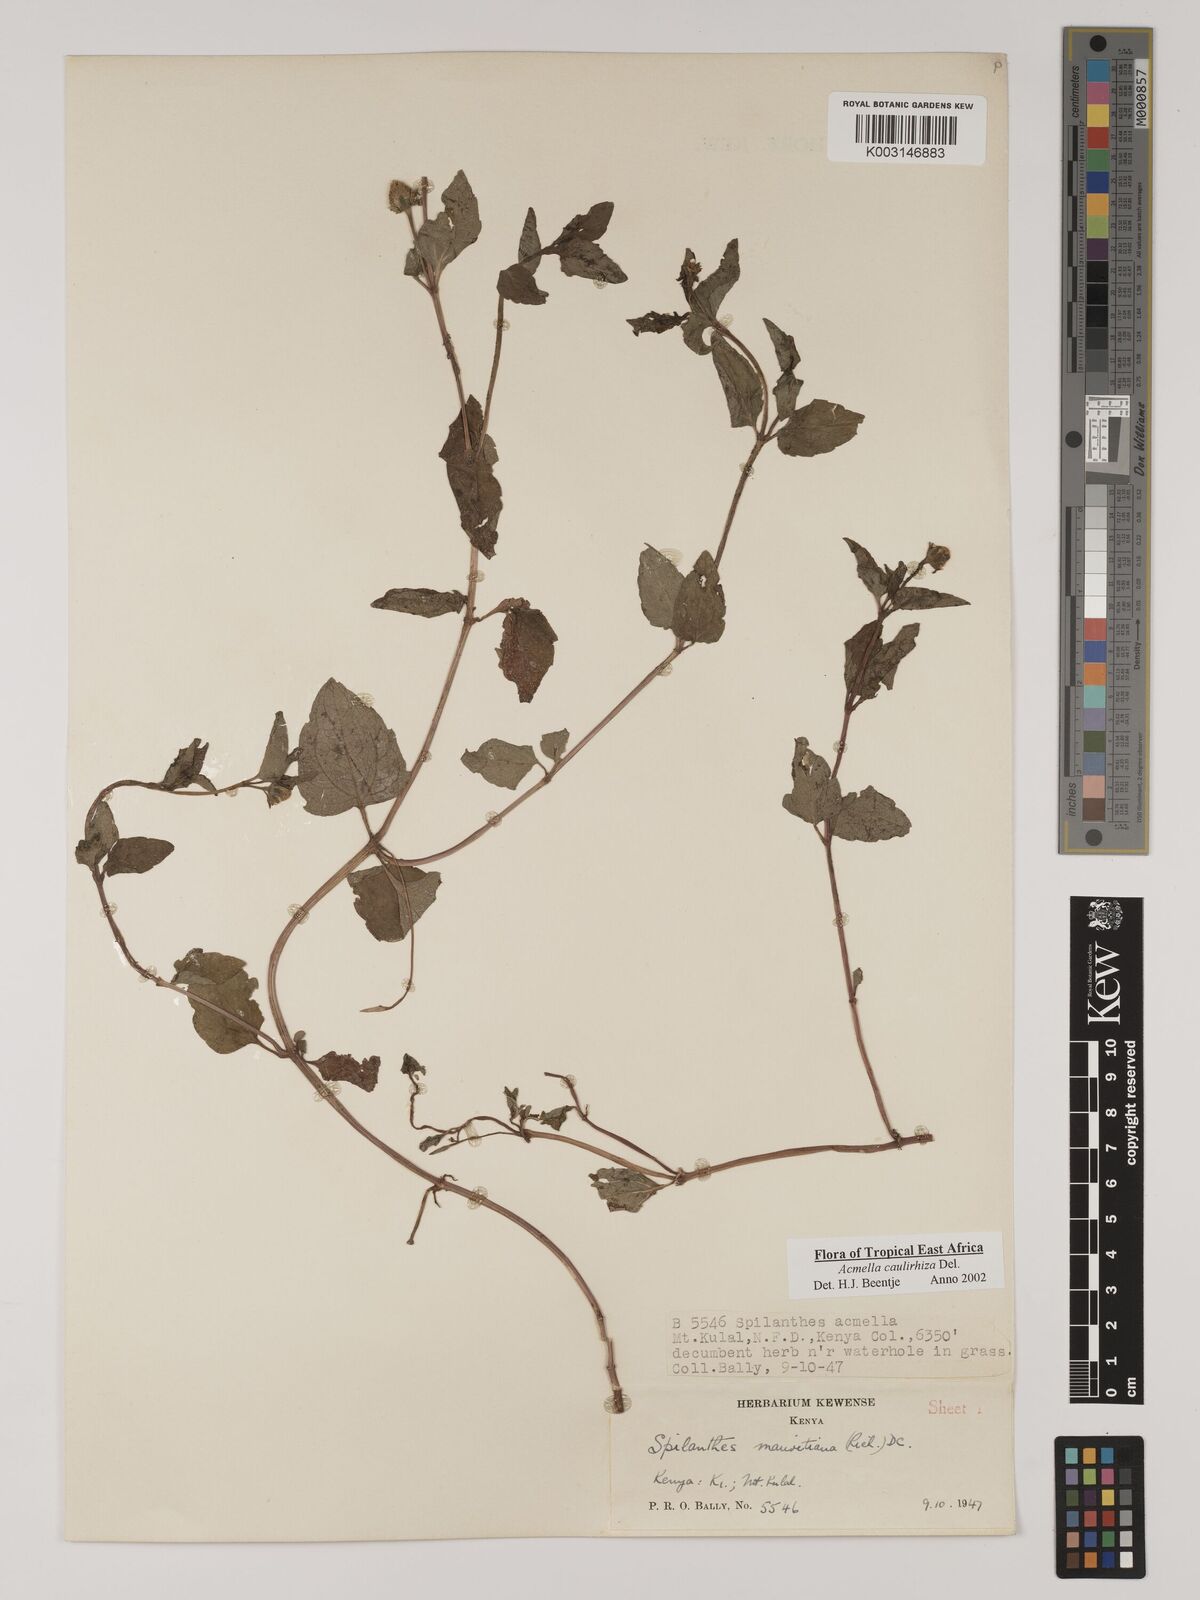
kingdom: Plantae
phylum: Tracheophyta
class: Magnoliopsida
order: Asterales
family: Asteraceae
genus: Acmella
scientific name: Acmella caulirhiza
